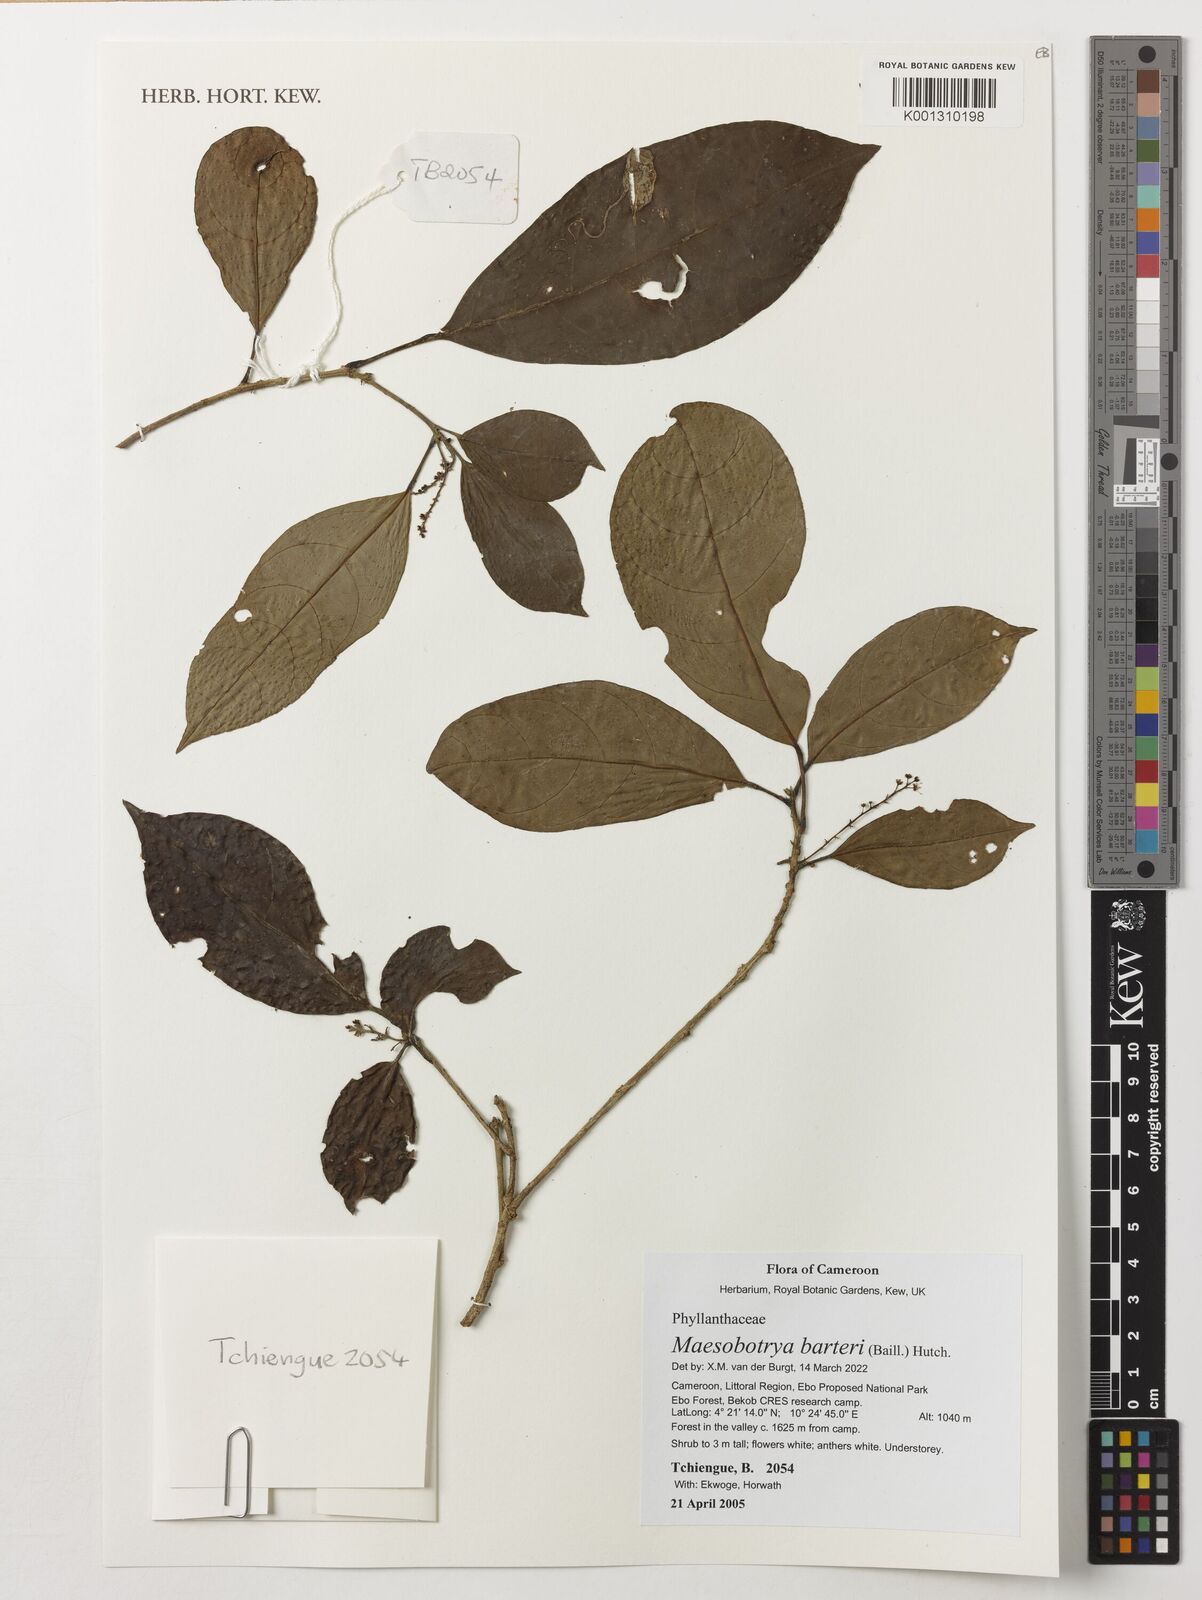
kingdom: Plantae
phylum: Tracheophyta
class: Magnoliopsida
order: Malpighiales
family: Phyllanthaceae
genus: Maesobotrya
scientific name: Maesobotrya barteri
